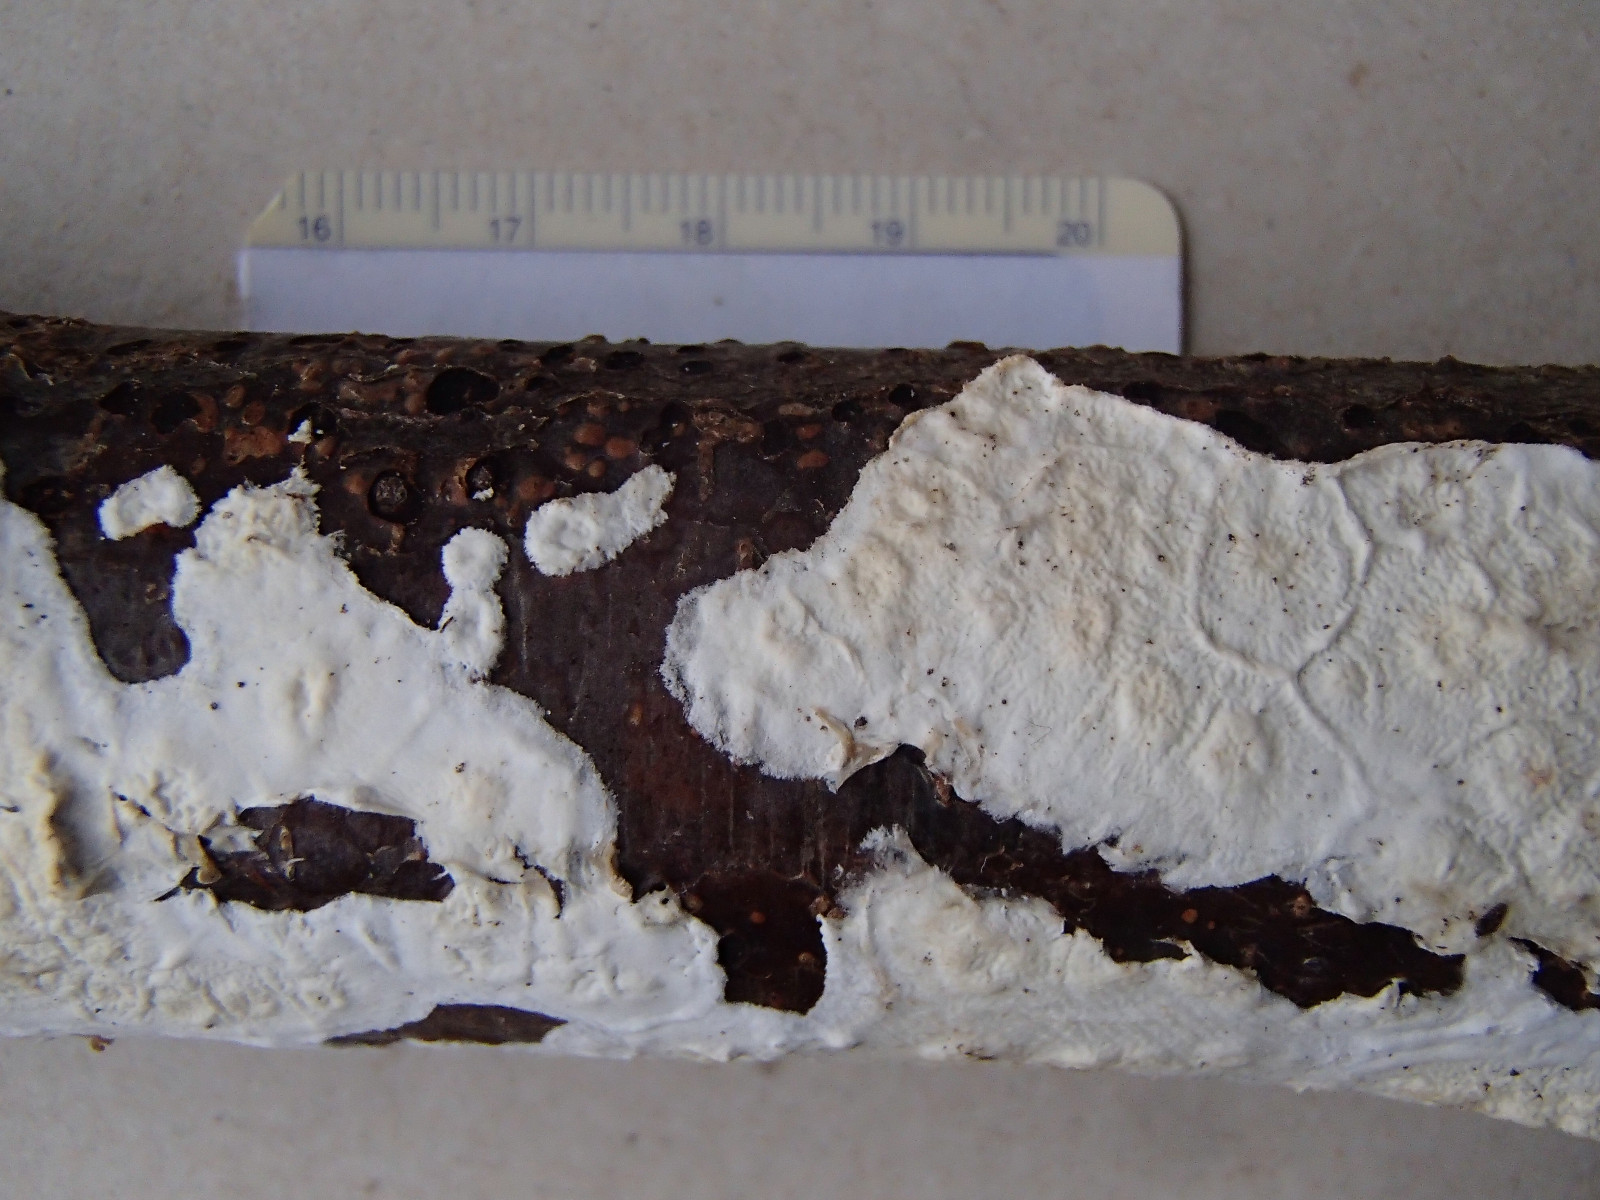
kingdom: Fungi
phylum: Basidiomycota
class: Agaricomycetes
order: Polyporales
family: Irpicaceae
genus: Byssomerulius
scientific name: Byssomerulius corium
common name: læder-åresvamp
